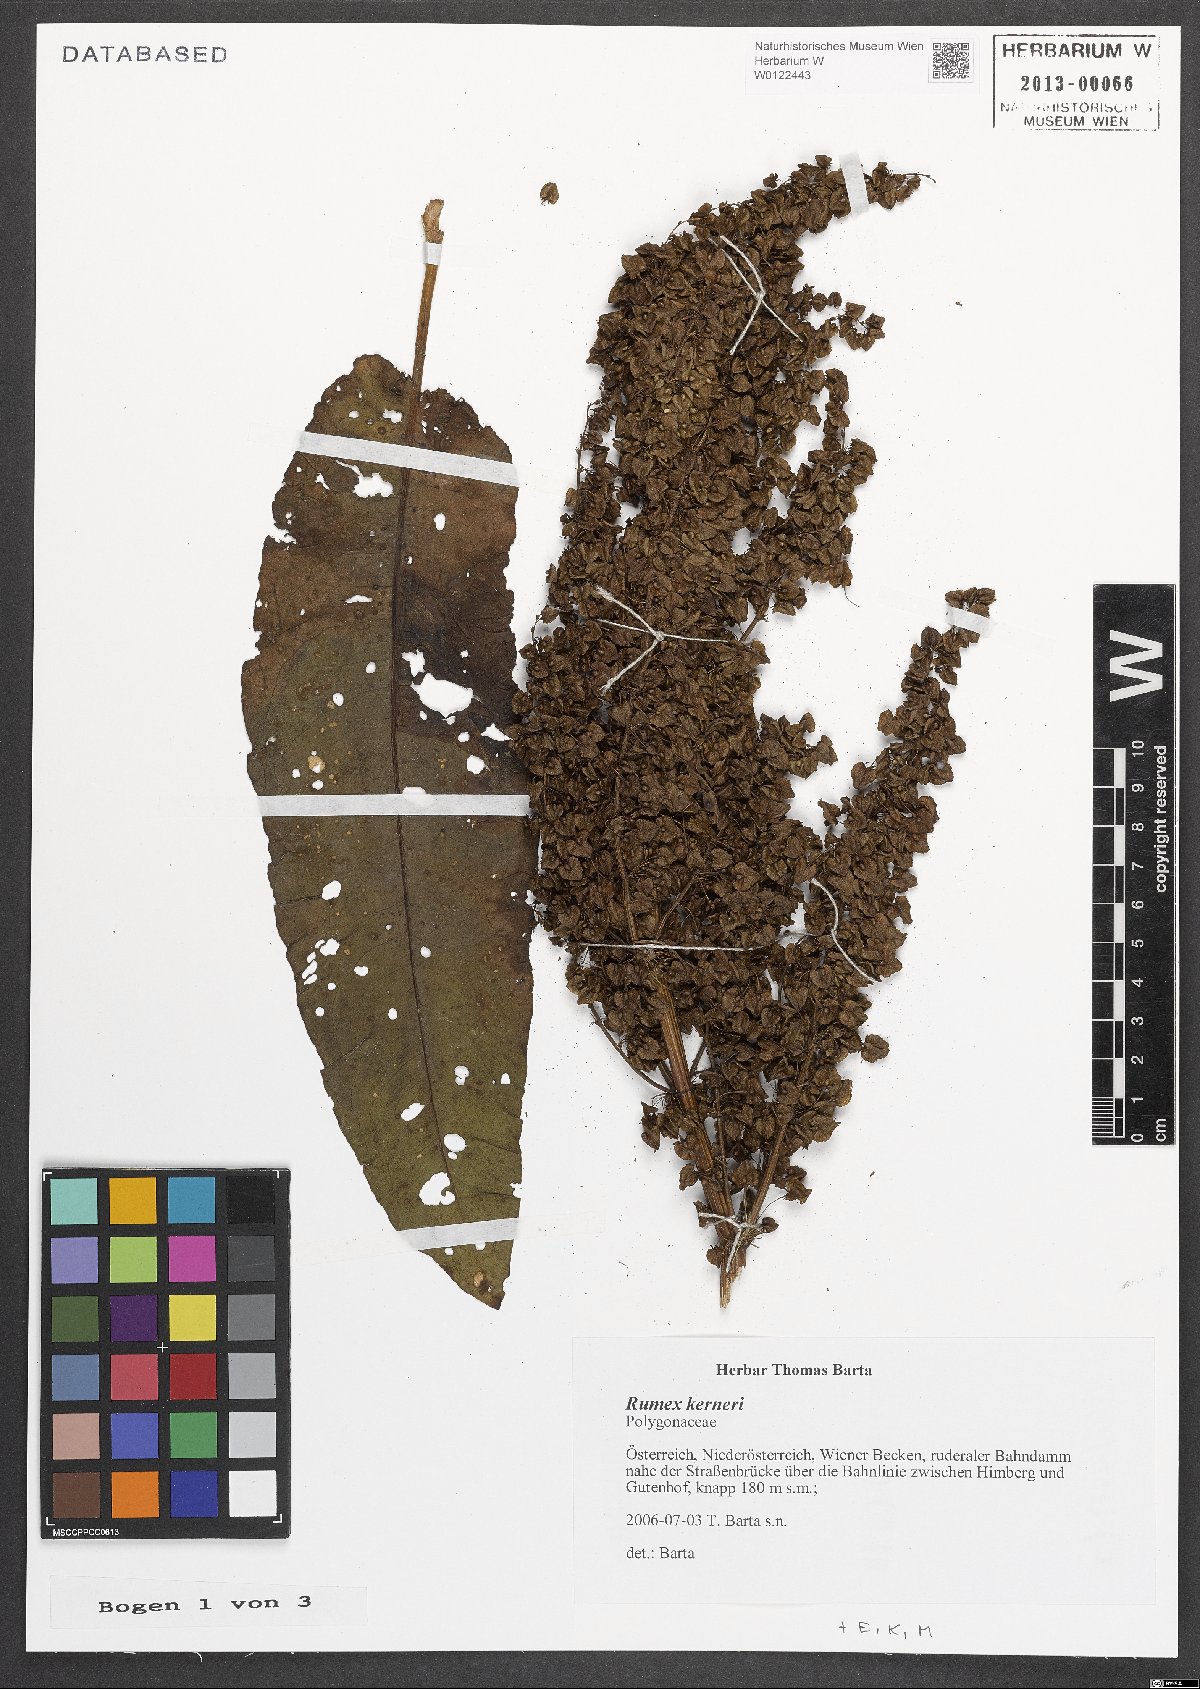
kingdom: Plantae
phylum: Tracheophyta
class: Magnoliopsida
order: Caryophyllales
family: Polygonaceae
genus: Rumex
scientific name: Rumex kerneri
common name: Kerner's dock
